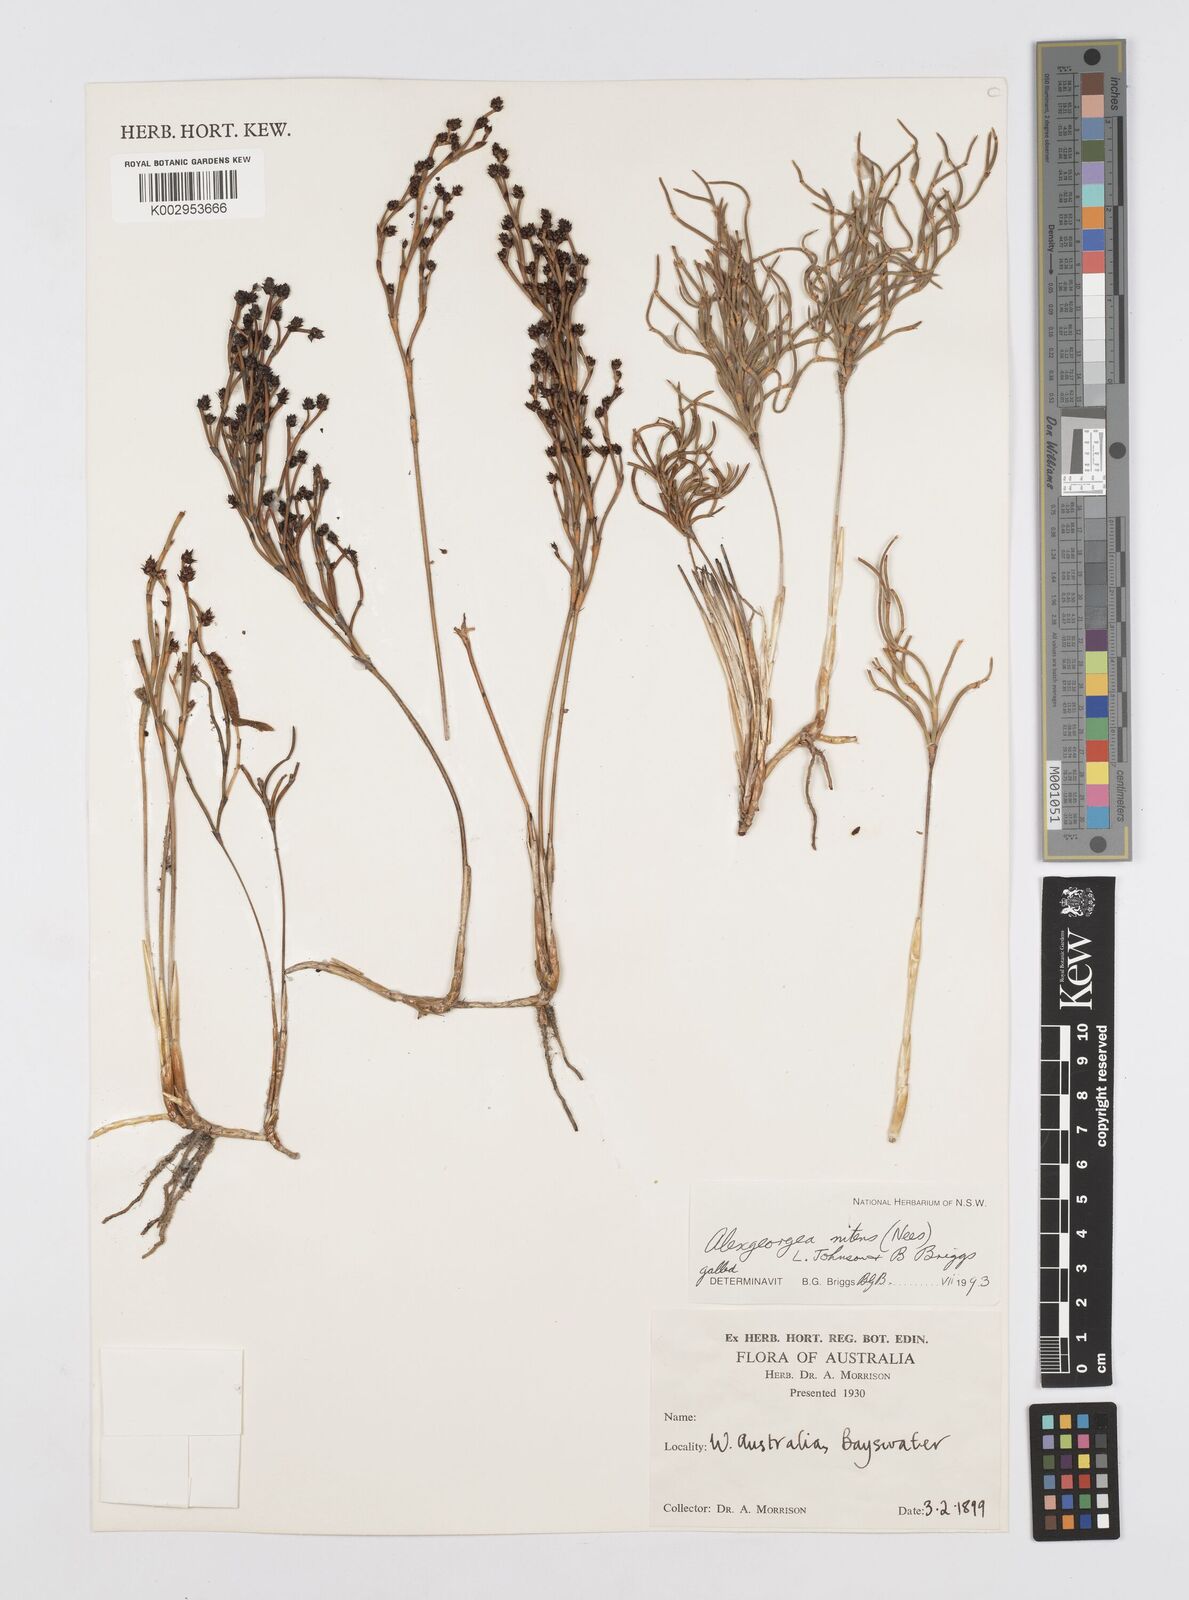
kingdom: Plantae
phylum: Tracheophyta
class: Liliopsida
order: Poales
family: Restionaceae
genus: Alexgeorgea
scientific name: Alexgeorgea nitens
